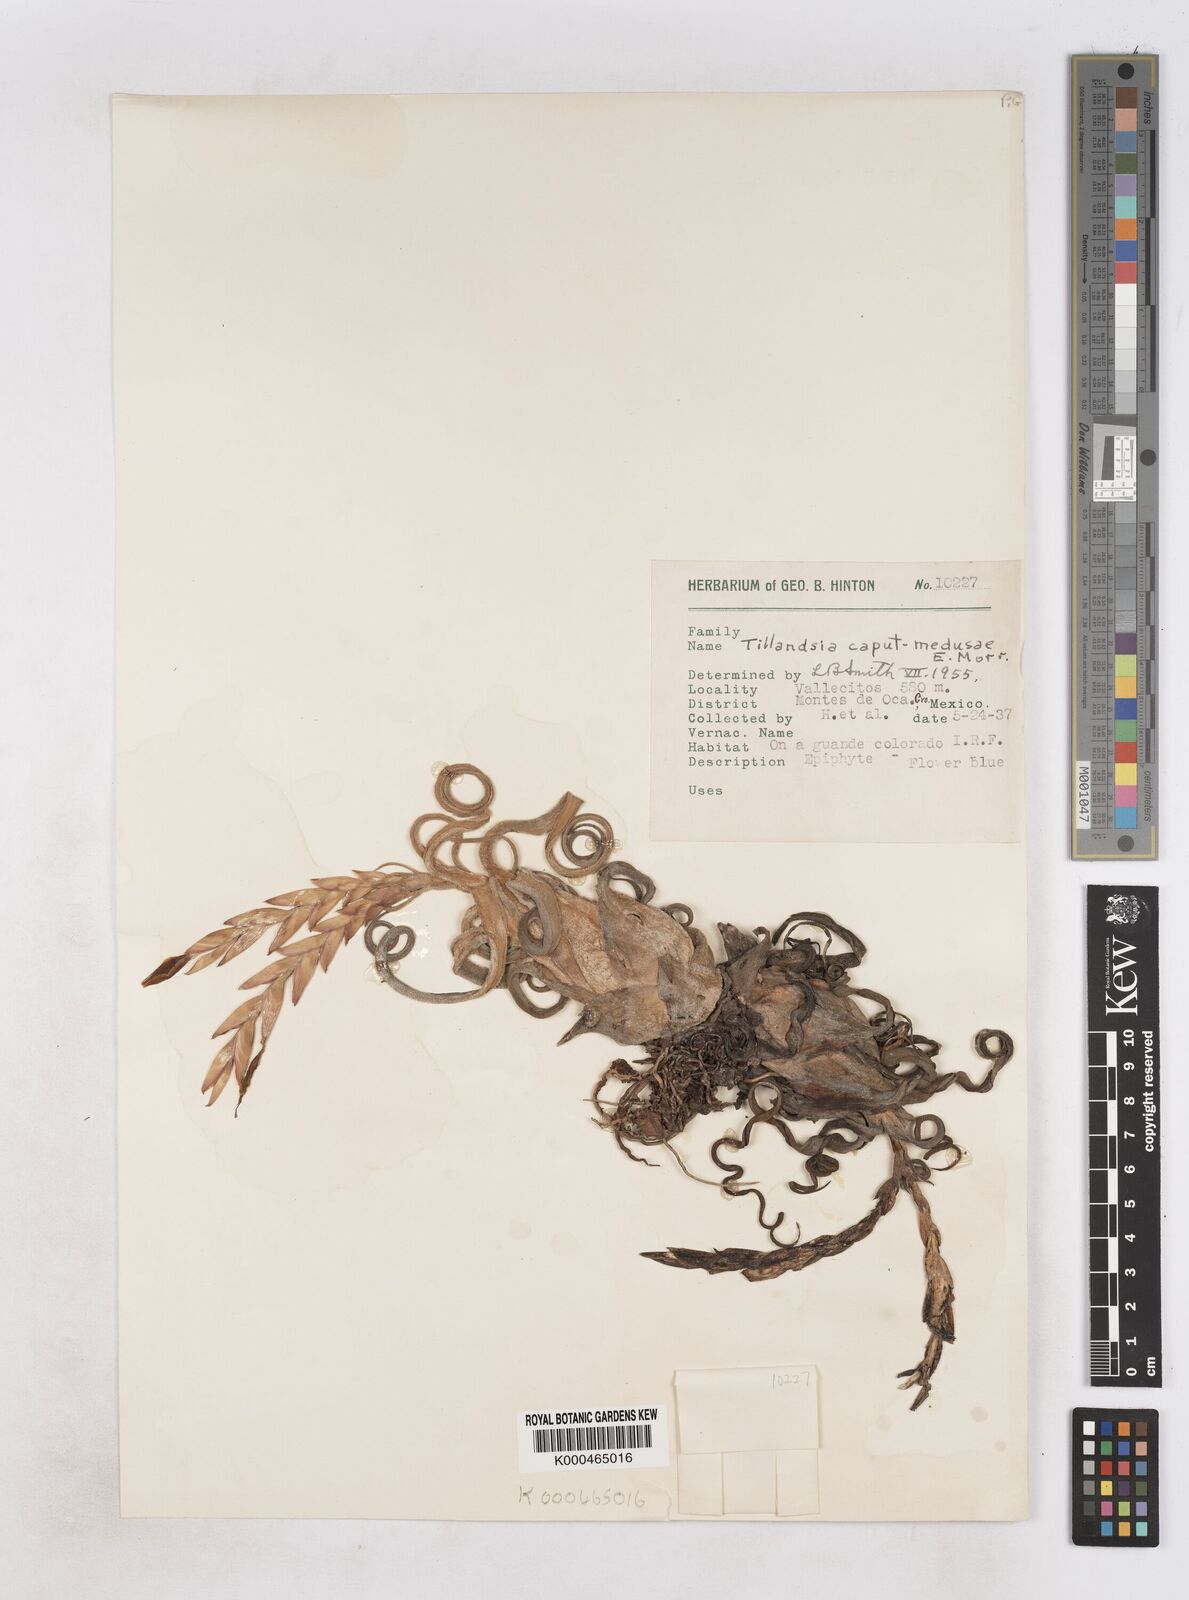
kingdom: Plantae
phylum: Tracheophyta
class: Liliopsida
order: Poales
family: Bromeliaceae
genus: Tillandsia
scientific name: Tillandsia caput-medusae
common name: Octopus plant
